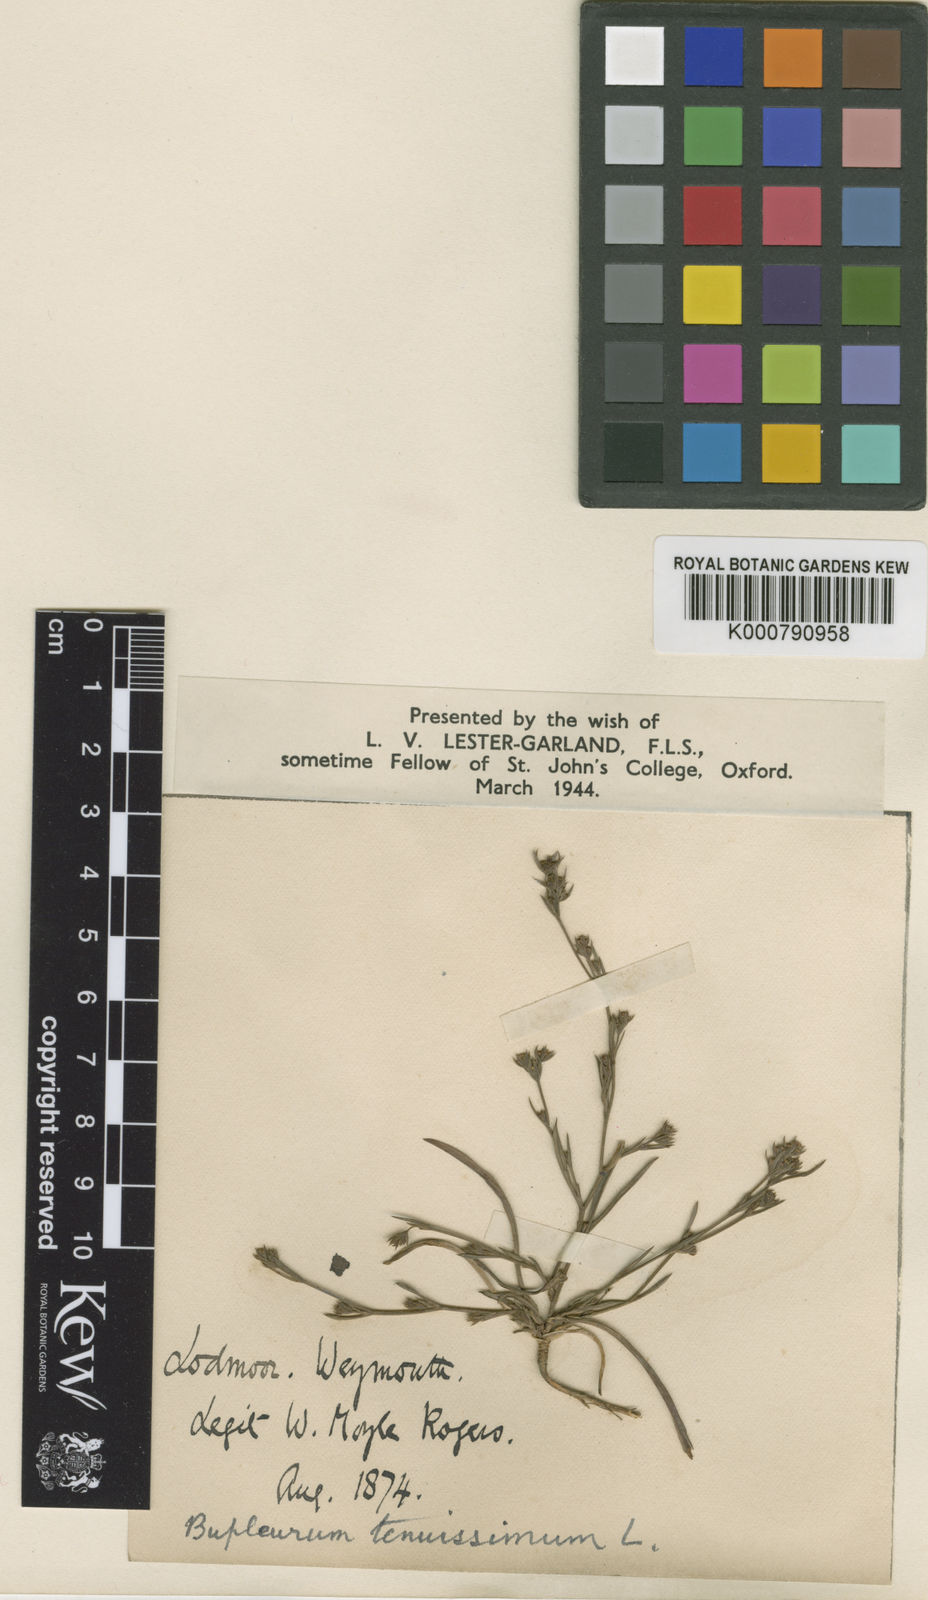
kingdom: Plantae
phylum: Tracheophyta
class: Magnoliopsida
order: Apiales
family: Apiaceae
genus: Bupleurum
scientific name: Bupleurum tenuissimum
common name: Slender hare's-ear
